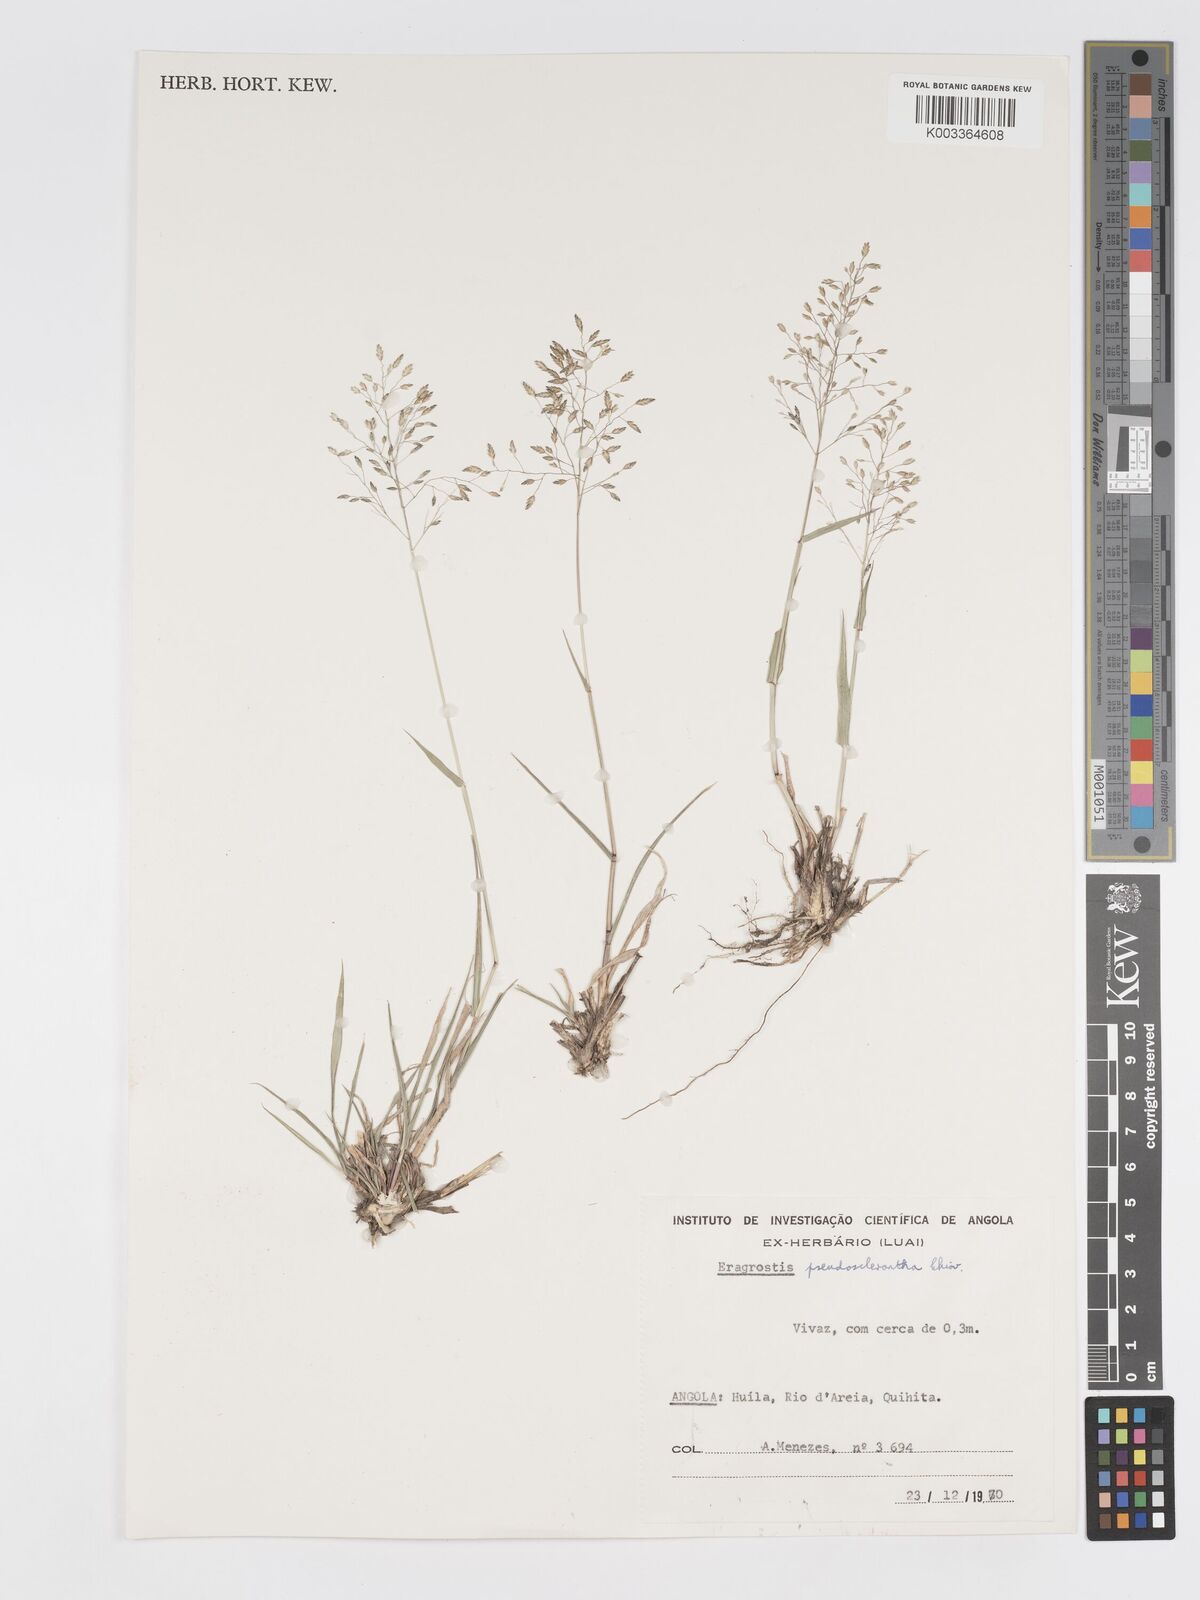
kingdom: Plantae
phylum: Tracheophyta
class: Liliopsida
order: Poales
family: Poaceae
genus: Eragrostis
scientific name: Eragrostis patentipilosa
